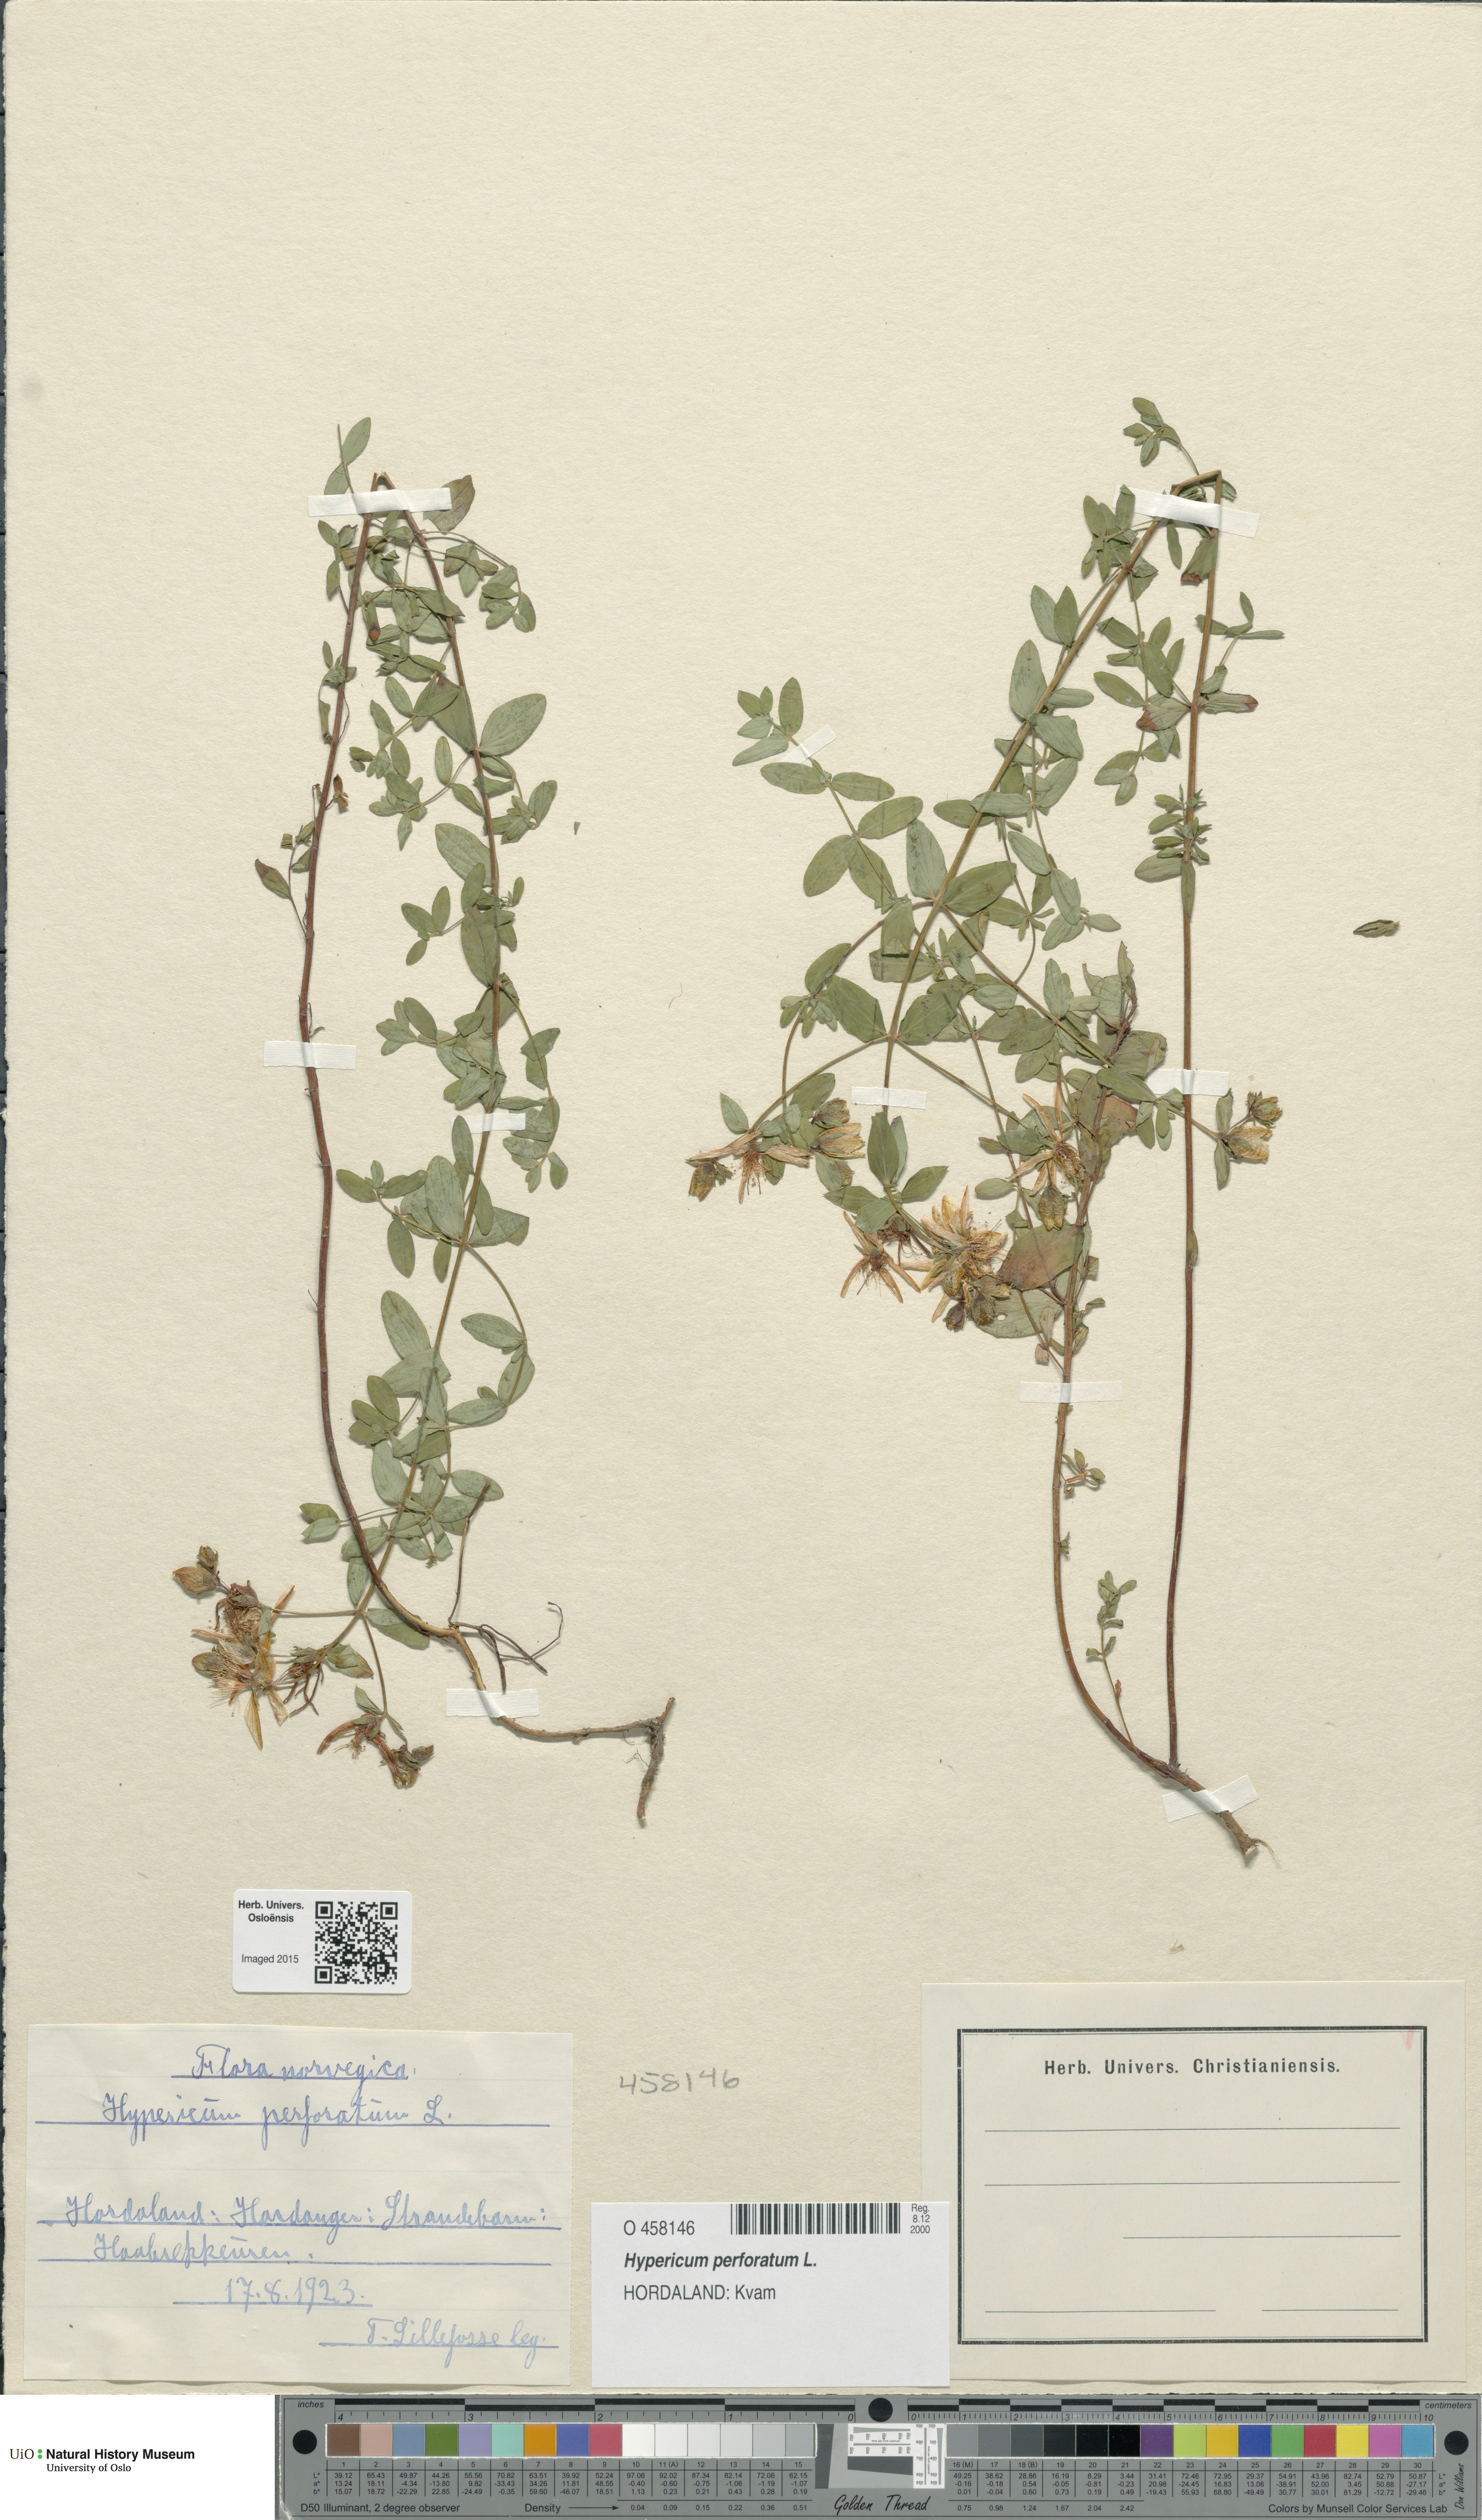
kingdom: Plantae
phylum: Tracheophyta
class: Magnoliopsida
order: Malpighiales
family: Hypericaceae
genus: Hypericum
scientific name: Hypericum perforatum
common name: Common st. johnswort
